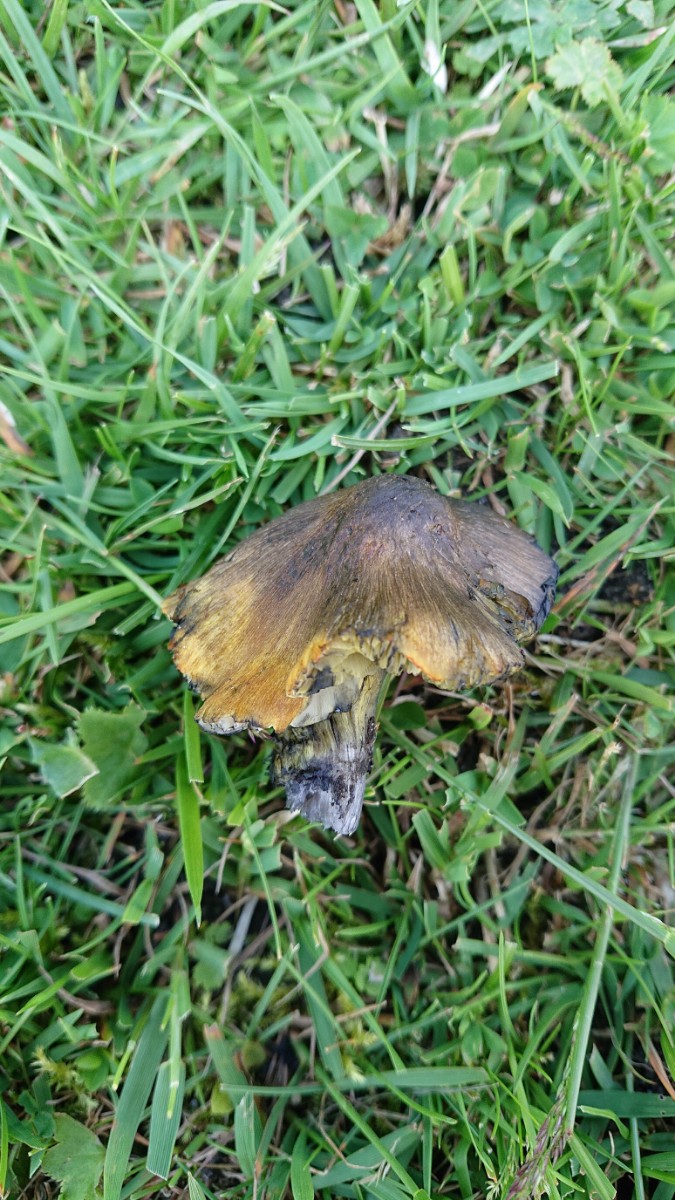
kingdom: Fungi
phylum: Basidiomycota
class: Agaricomycetes
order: Agaricales
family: Hygrophoraceae
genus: Hygrocybe
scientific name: Hygrocybe conica
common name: kegle-vokshat
